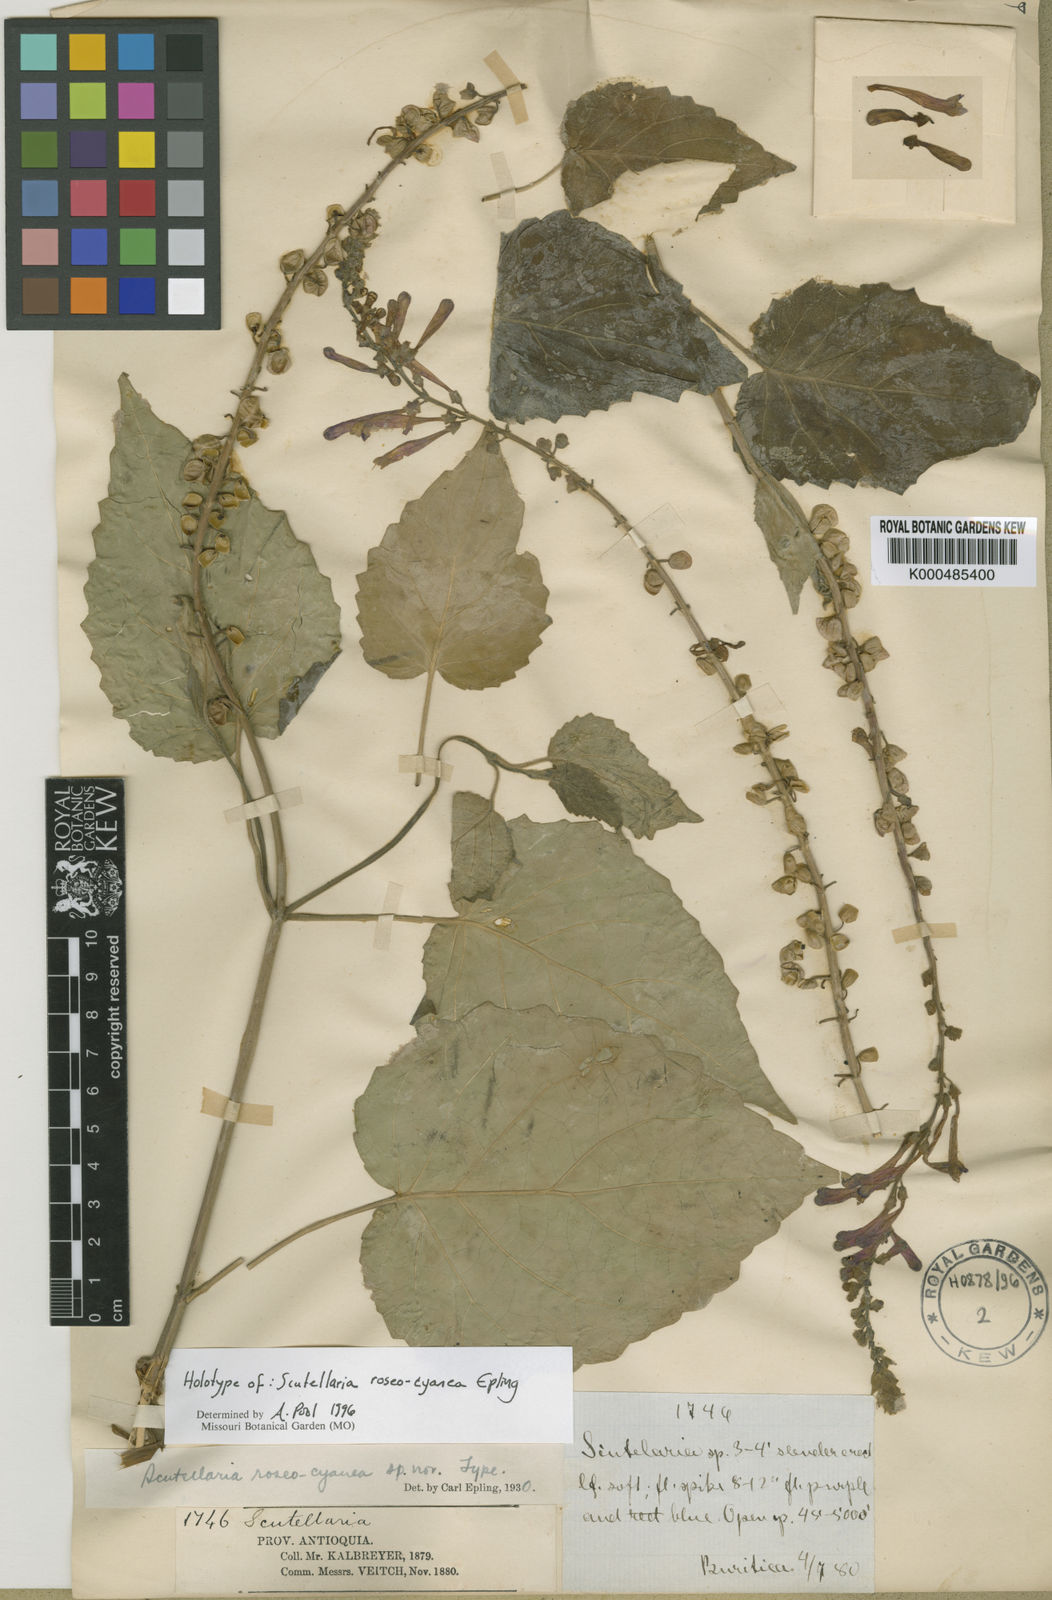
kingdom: Plantae
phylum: Tracheophyta
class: Magnoliopsida
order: Lamiales
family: Lamiaceae
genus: Scutellaria
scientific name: Scutellaria roseocyanea
